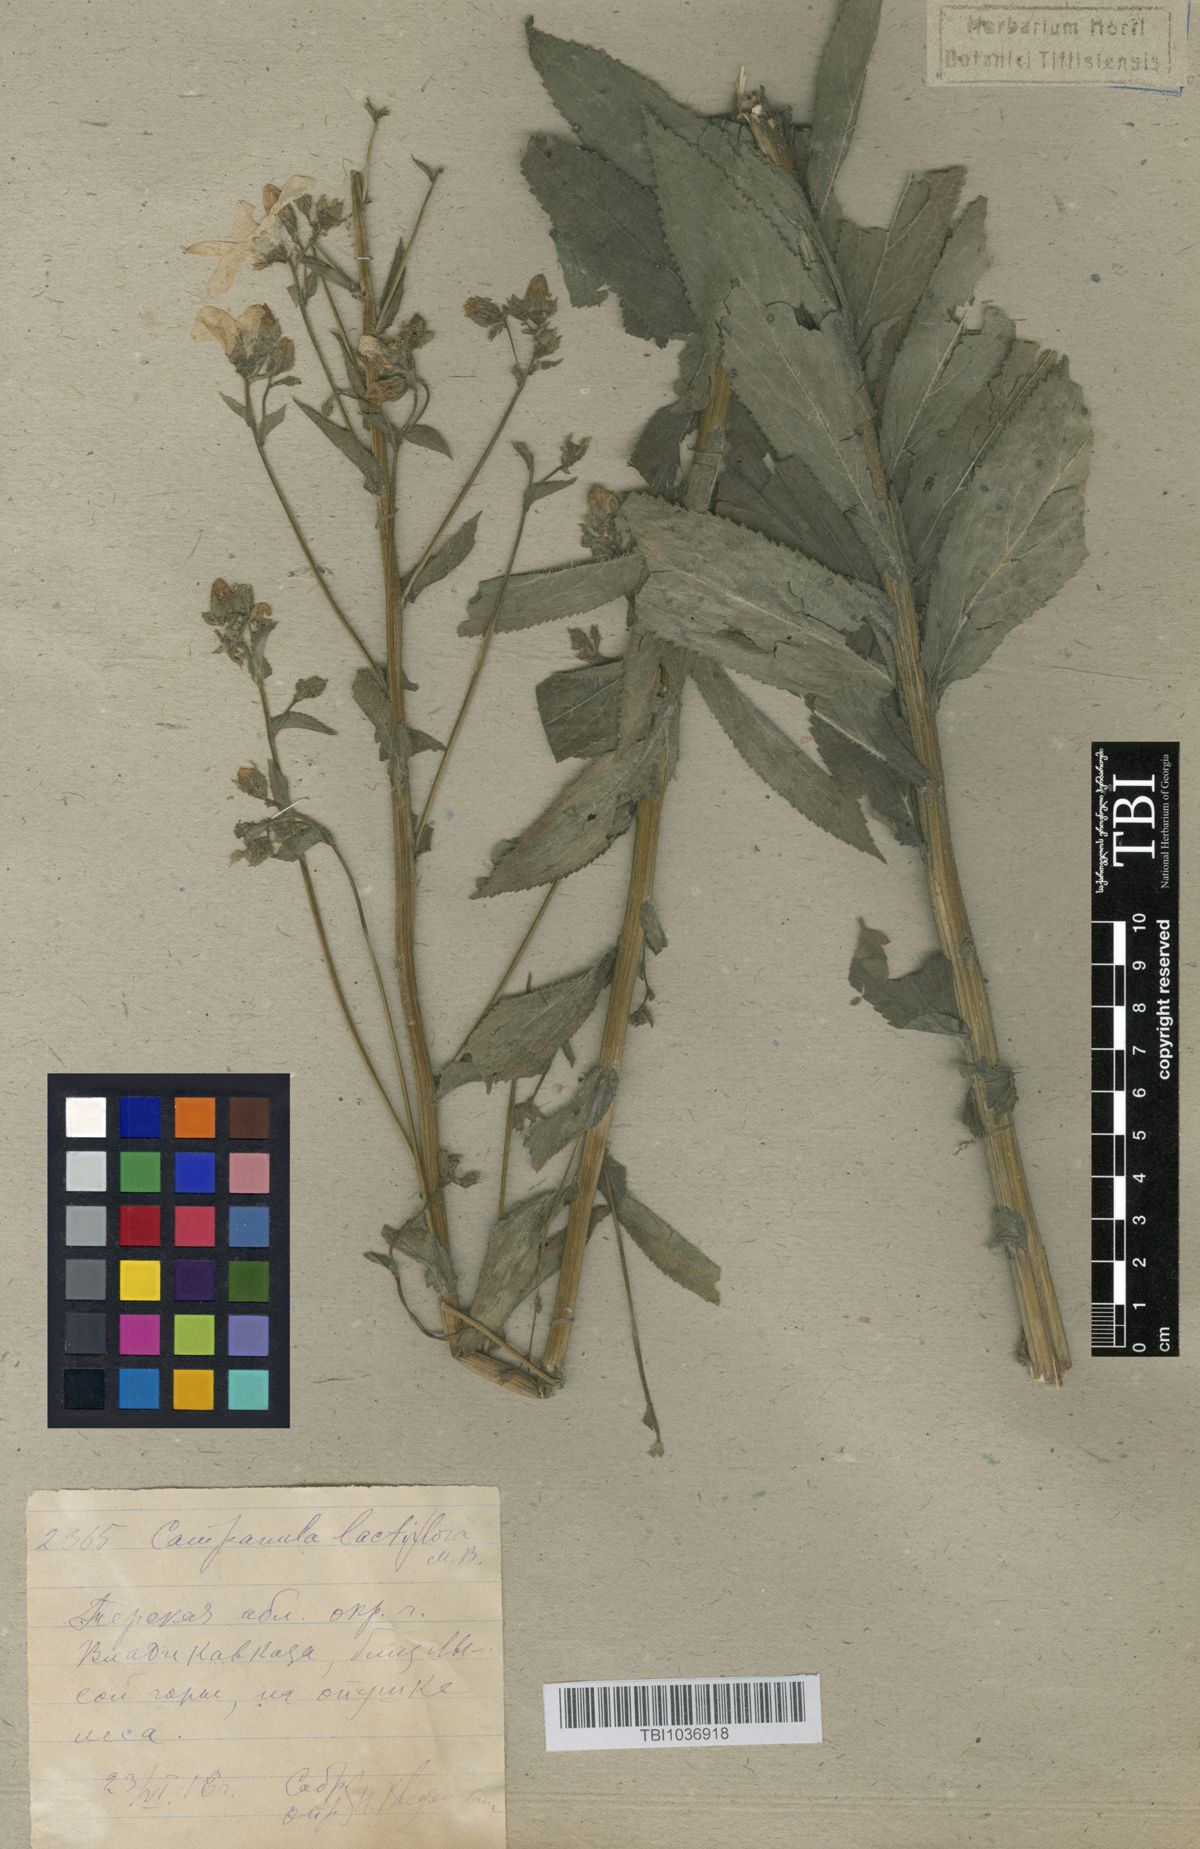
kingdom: Plantae
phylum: Tracheophyta
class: Magnoliopsida
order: Asterales
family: Campanulaceae
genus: Campanula
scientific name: Campanula lactiflora
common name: Milky bellflower
